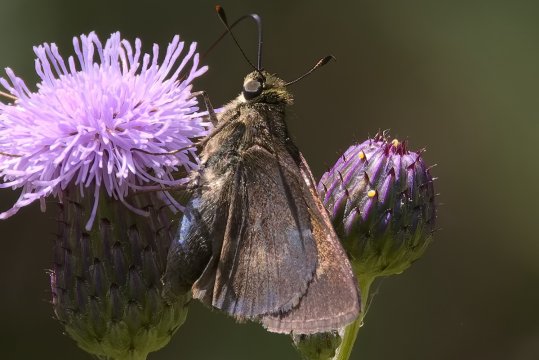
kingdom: Animalia
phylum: Arthropoda
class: Insecta
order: Lepidoptera
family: Hesperiidae
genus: Polites
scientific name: Polites egeremet
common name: Northern Broken-Dash
